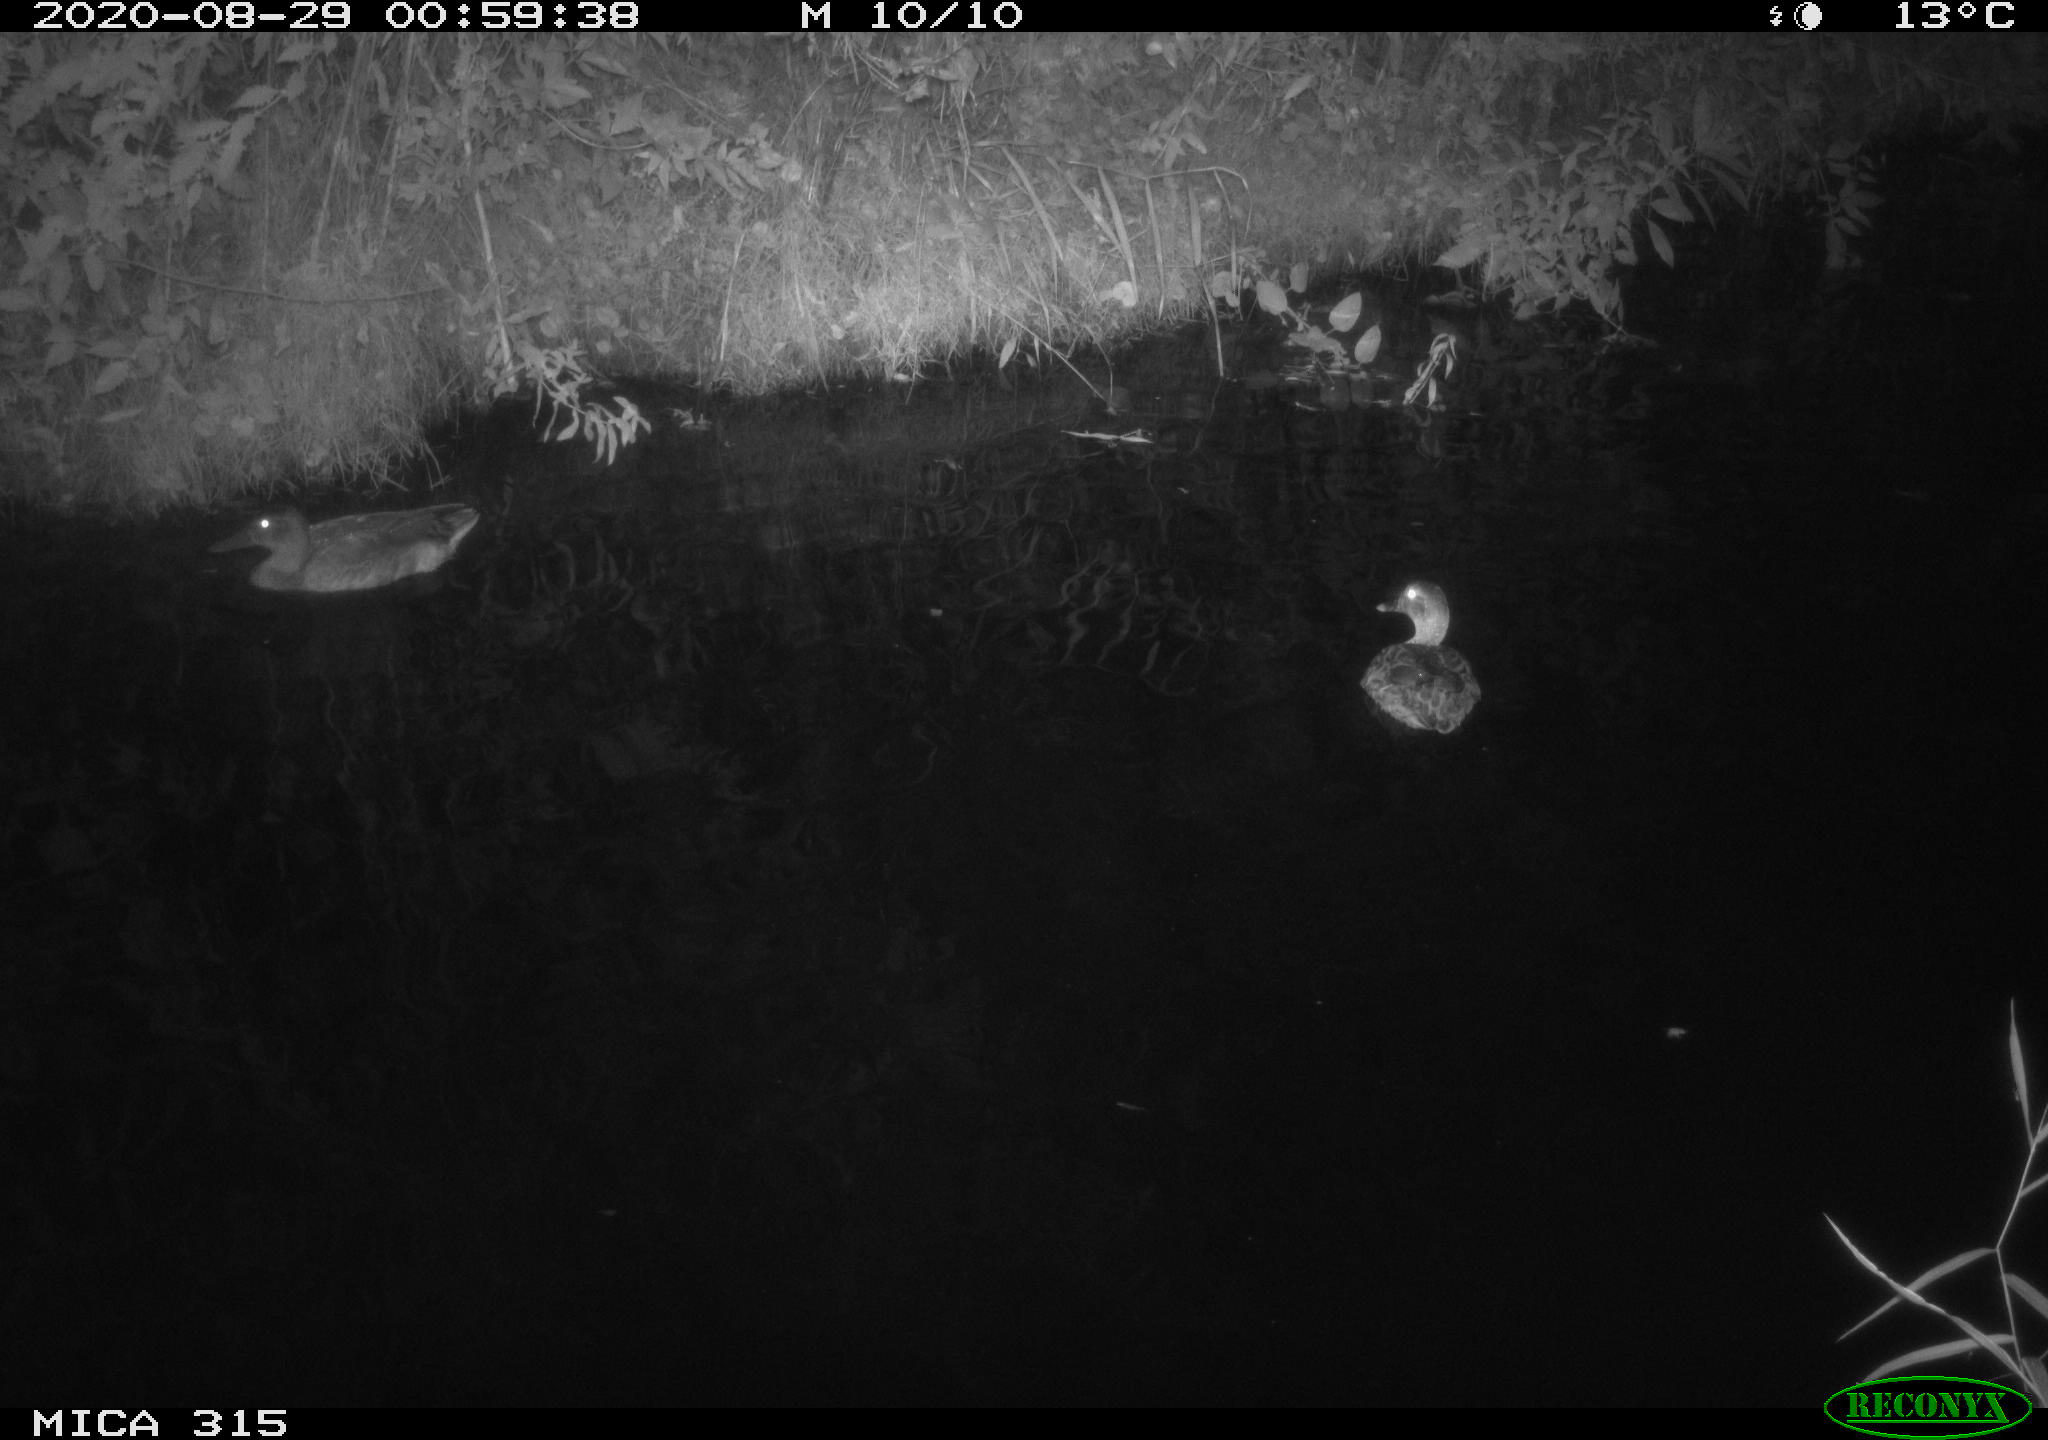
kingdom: Animalia
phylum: Chordata
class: Aves
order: Anseriformes
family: Anatidae
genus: Anas
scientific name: Anas platyrhynchos
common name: Mallard
